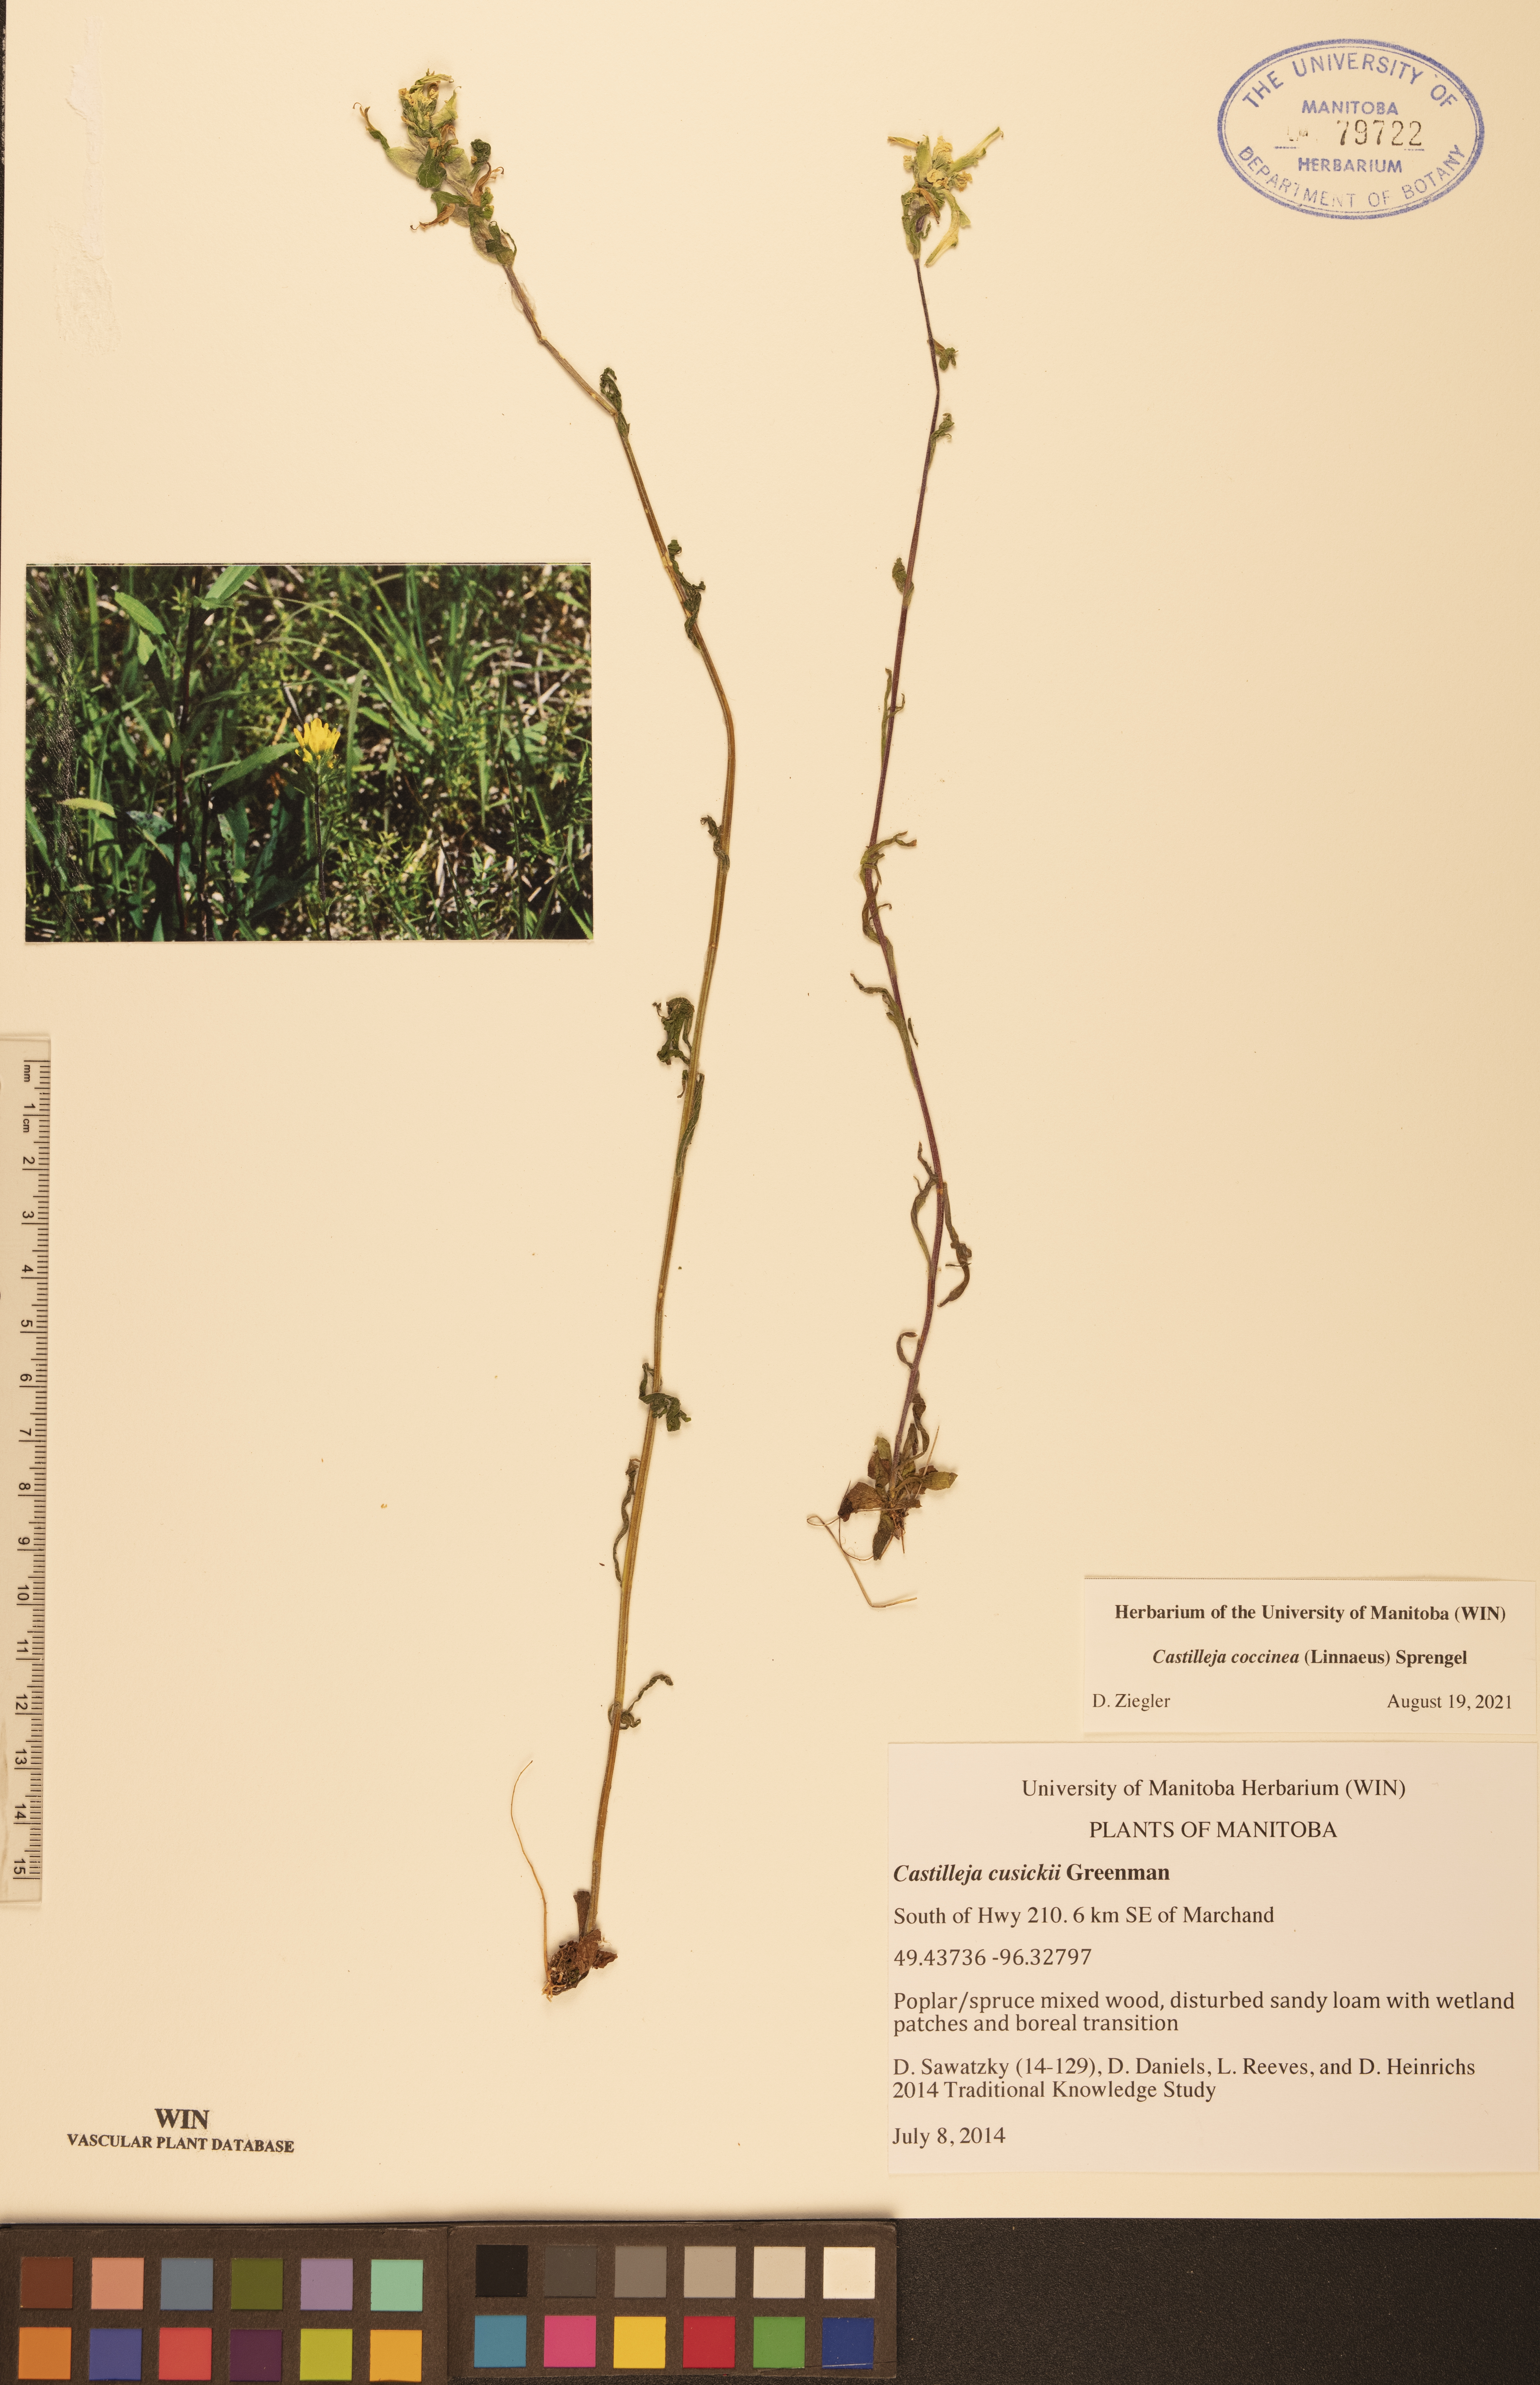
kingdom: Plantae
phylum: Tracheophyta
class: Magnoliopsida
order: Lamiales
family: Orobanchaceae
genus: Castilleja
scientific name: Castilleja coccinea
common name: Scarlet paintbrush
